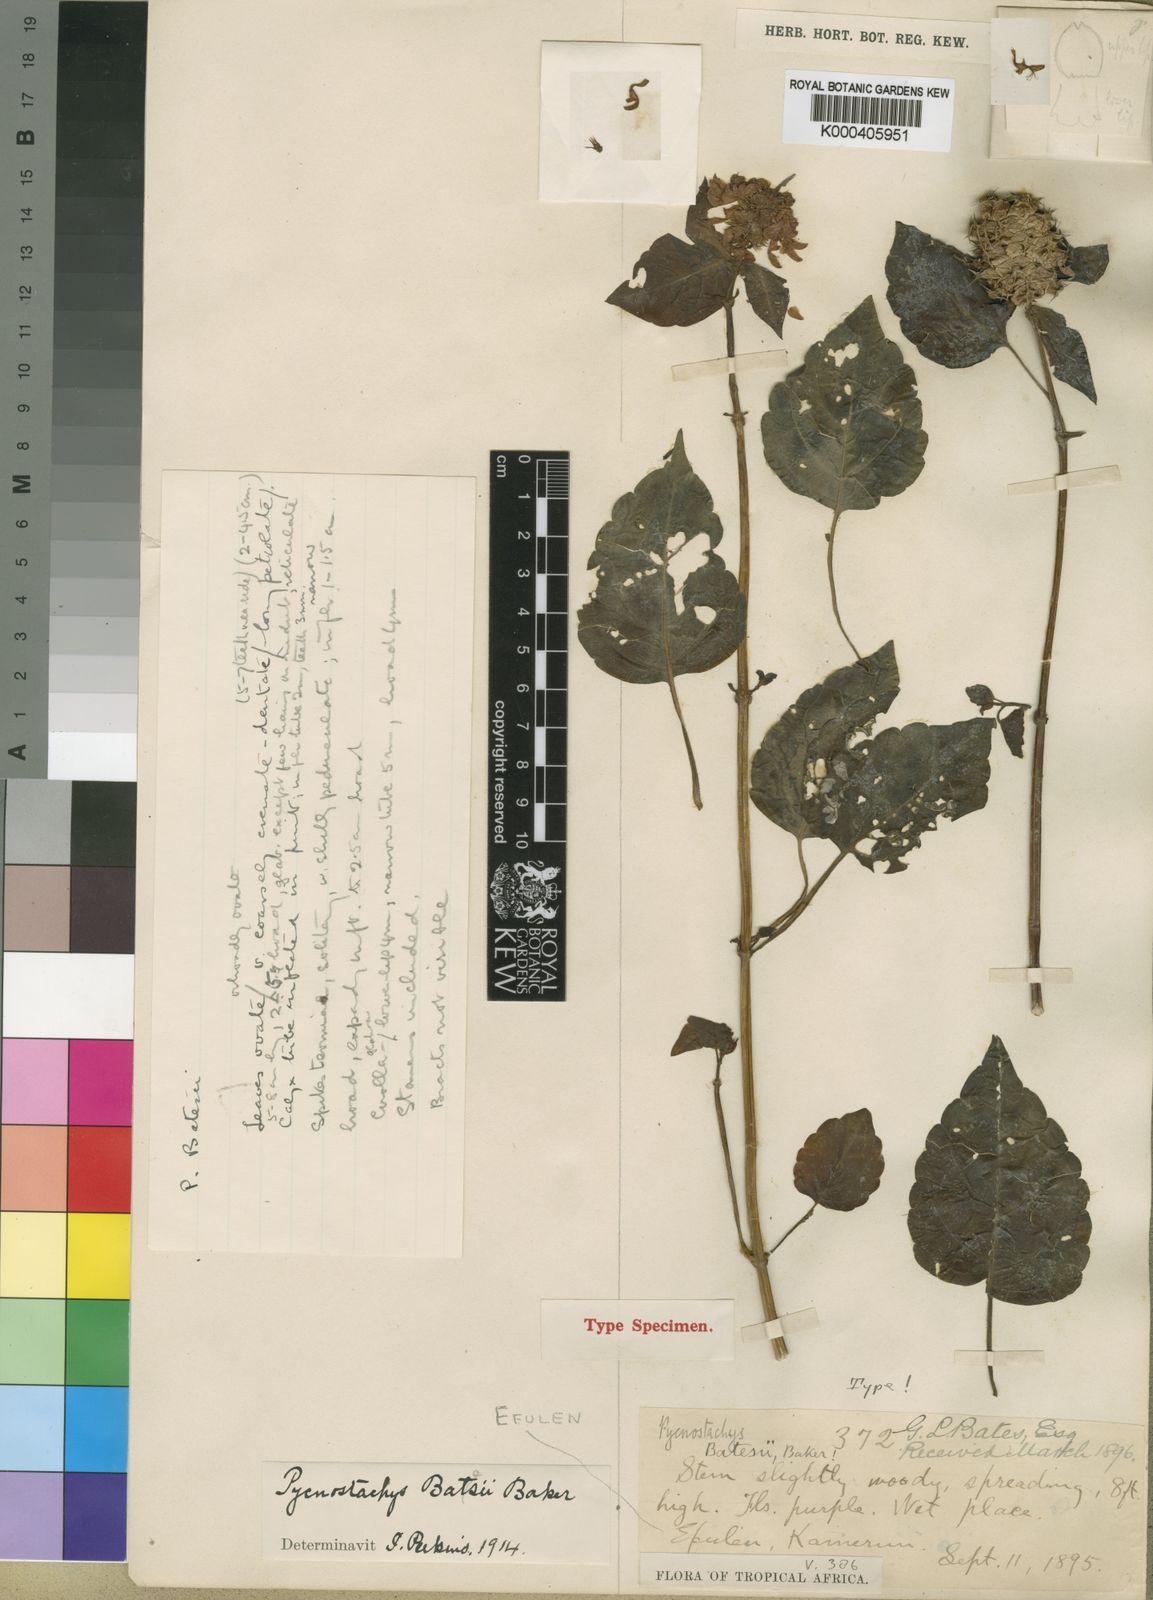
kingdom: Plantae
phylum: Tracheophyta
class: Magnoliopsida
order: Lamiales
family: Lamiaceae
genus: Coleus
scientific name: Coleus batesii
